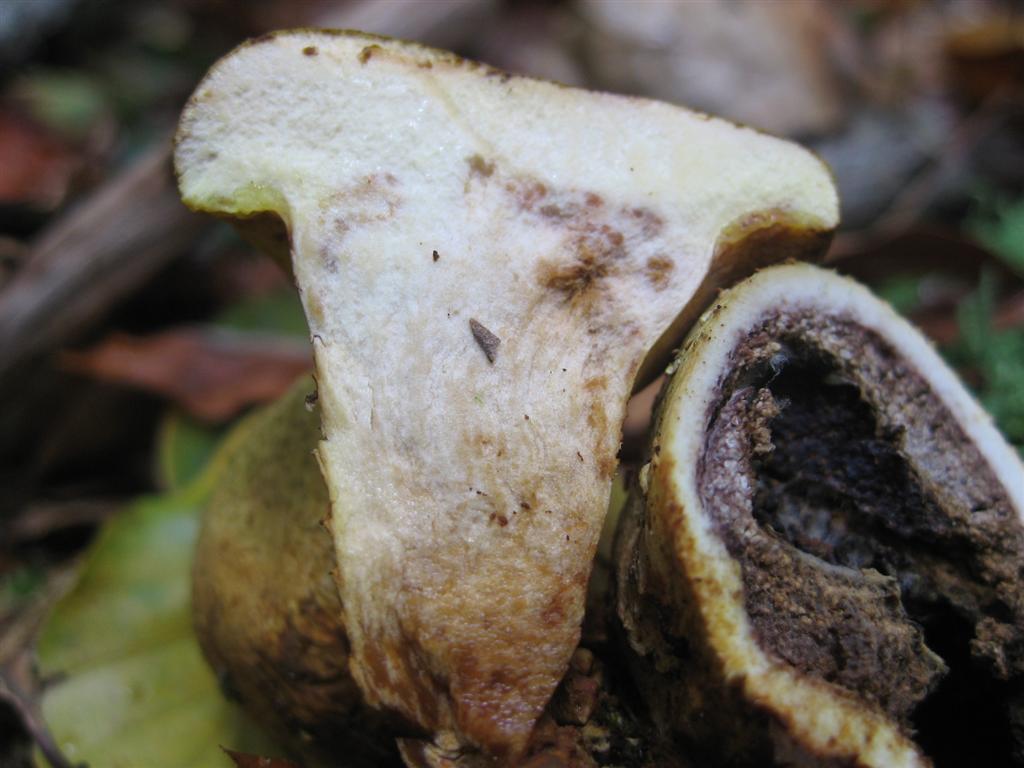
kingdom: Fungi
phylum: Basidiomycota
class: Agaricomycetes
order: Boletales
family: Boletaceae
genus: Pseudoboletus
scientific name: Pseudoboletus parasiticus
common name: snyltende rørhat
